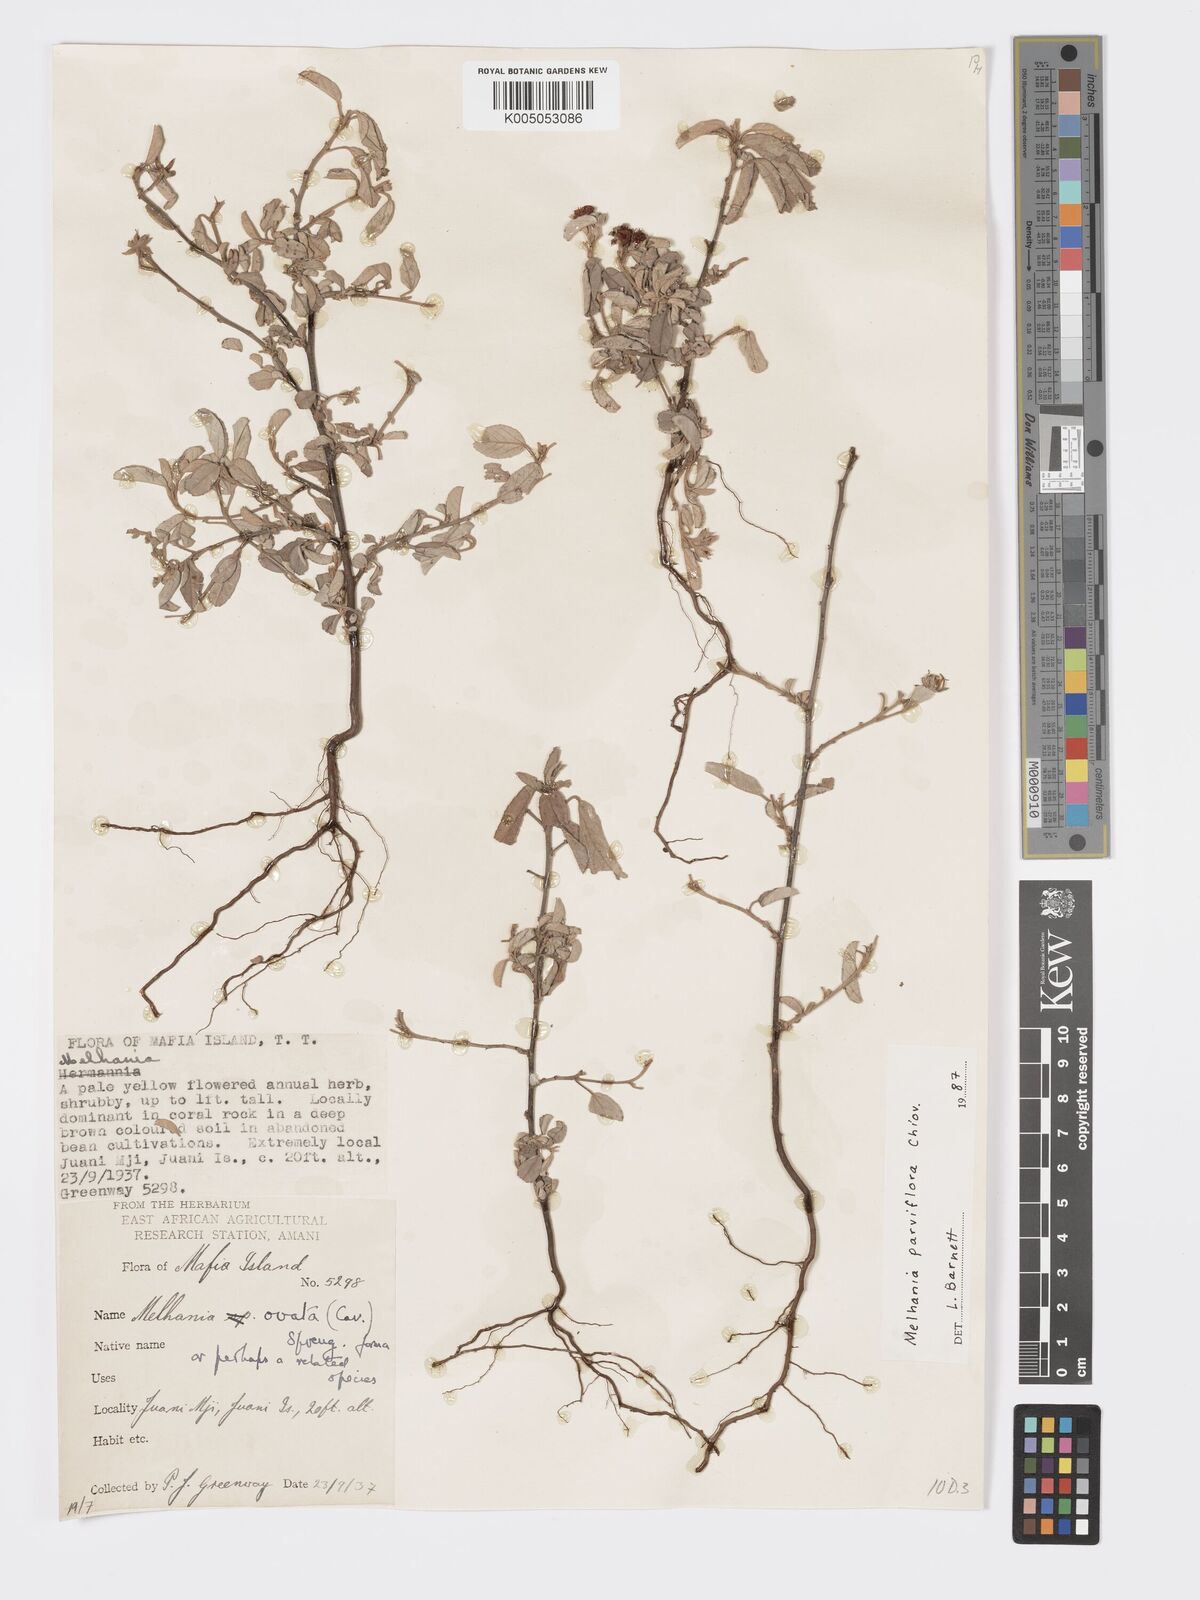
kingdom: Plantae
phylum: Tracheophyta
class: Magnoliopsida
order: Malvales
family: Malvaceae
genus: Melhania
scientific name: Melhania parviflora
